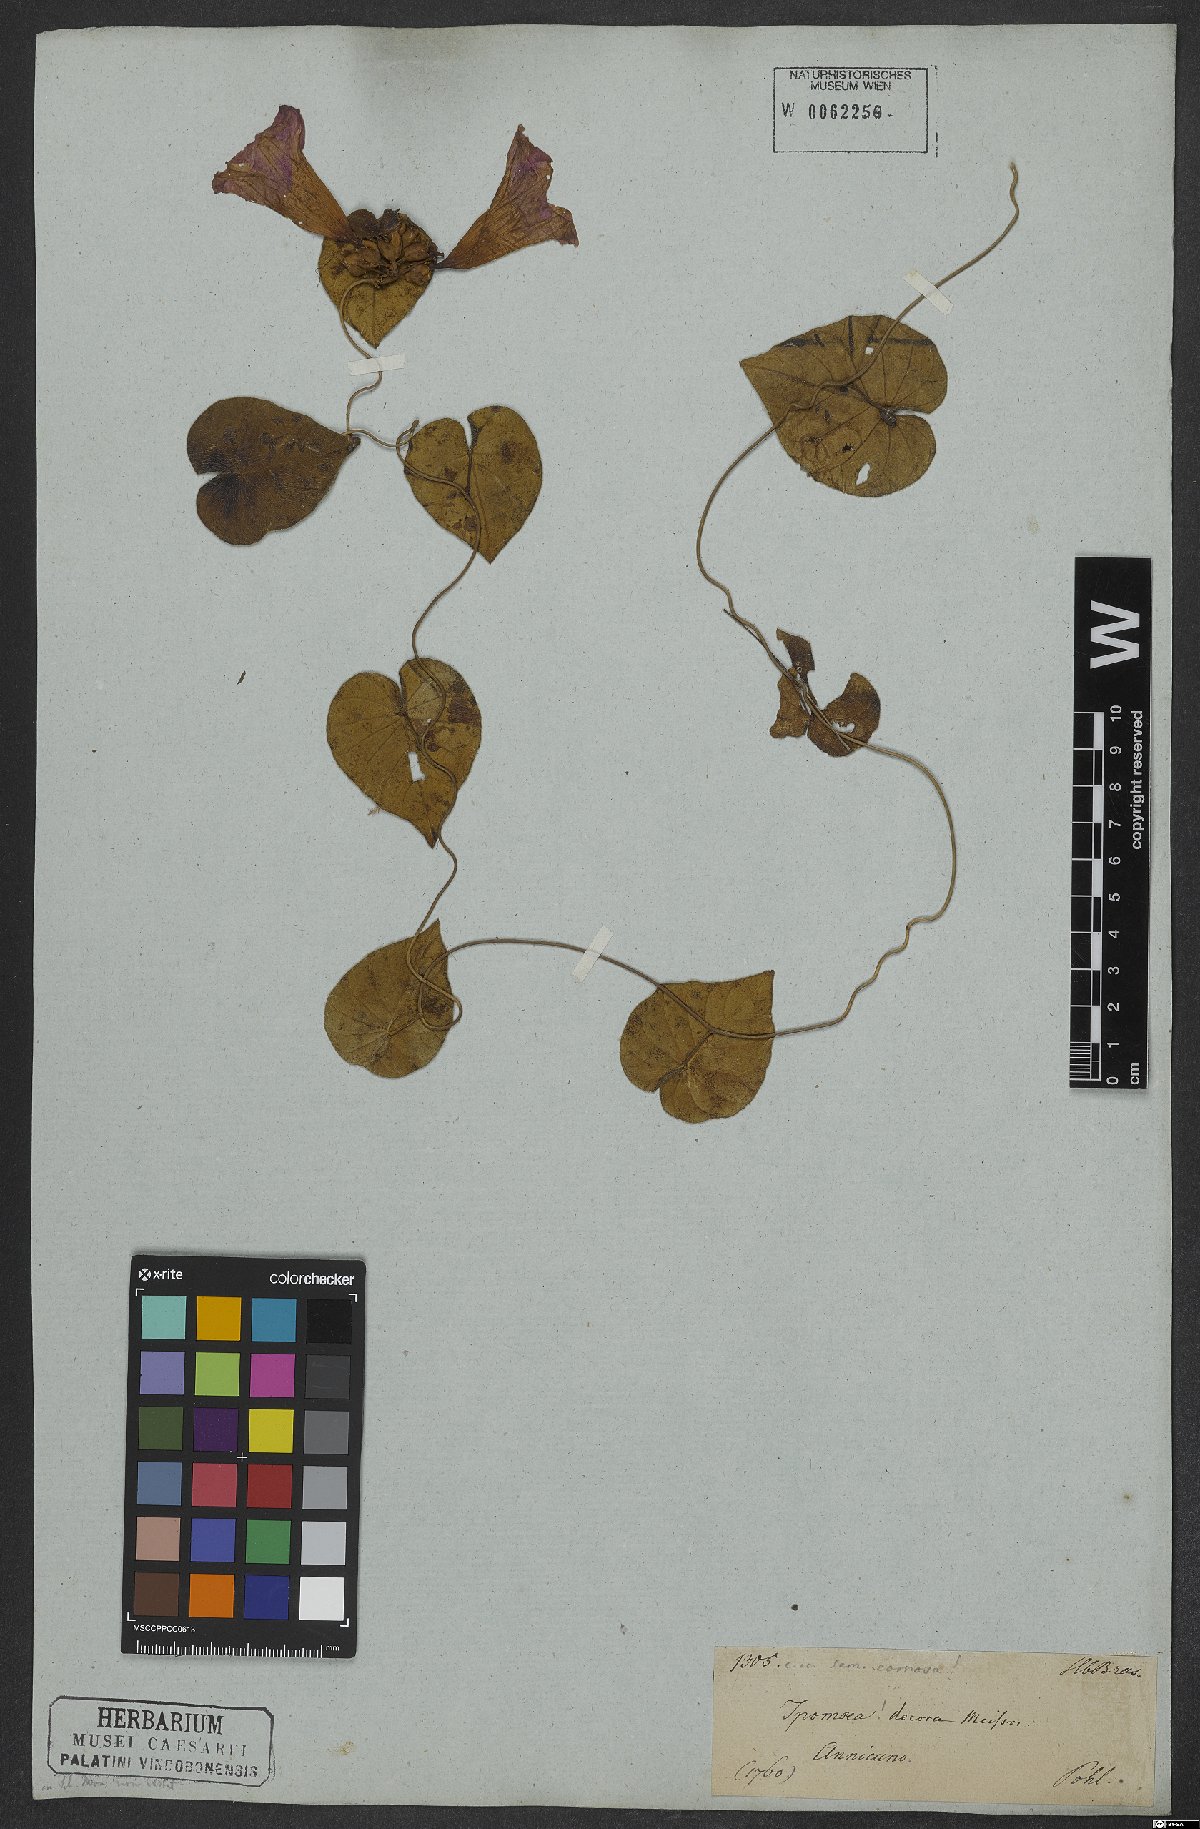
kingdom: Plantae
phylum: Tracheophyta
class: Magnoliopsida
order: Solanales
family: Convolvulaceae
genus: Ipomoea
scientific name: Ipomoea hildebrandtii
